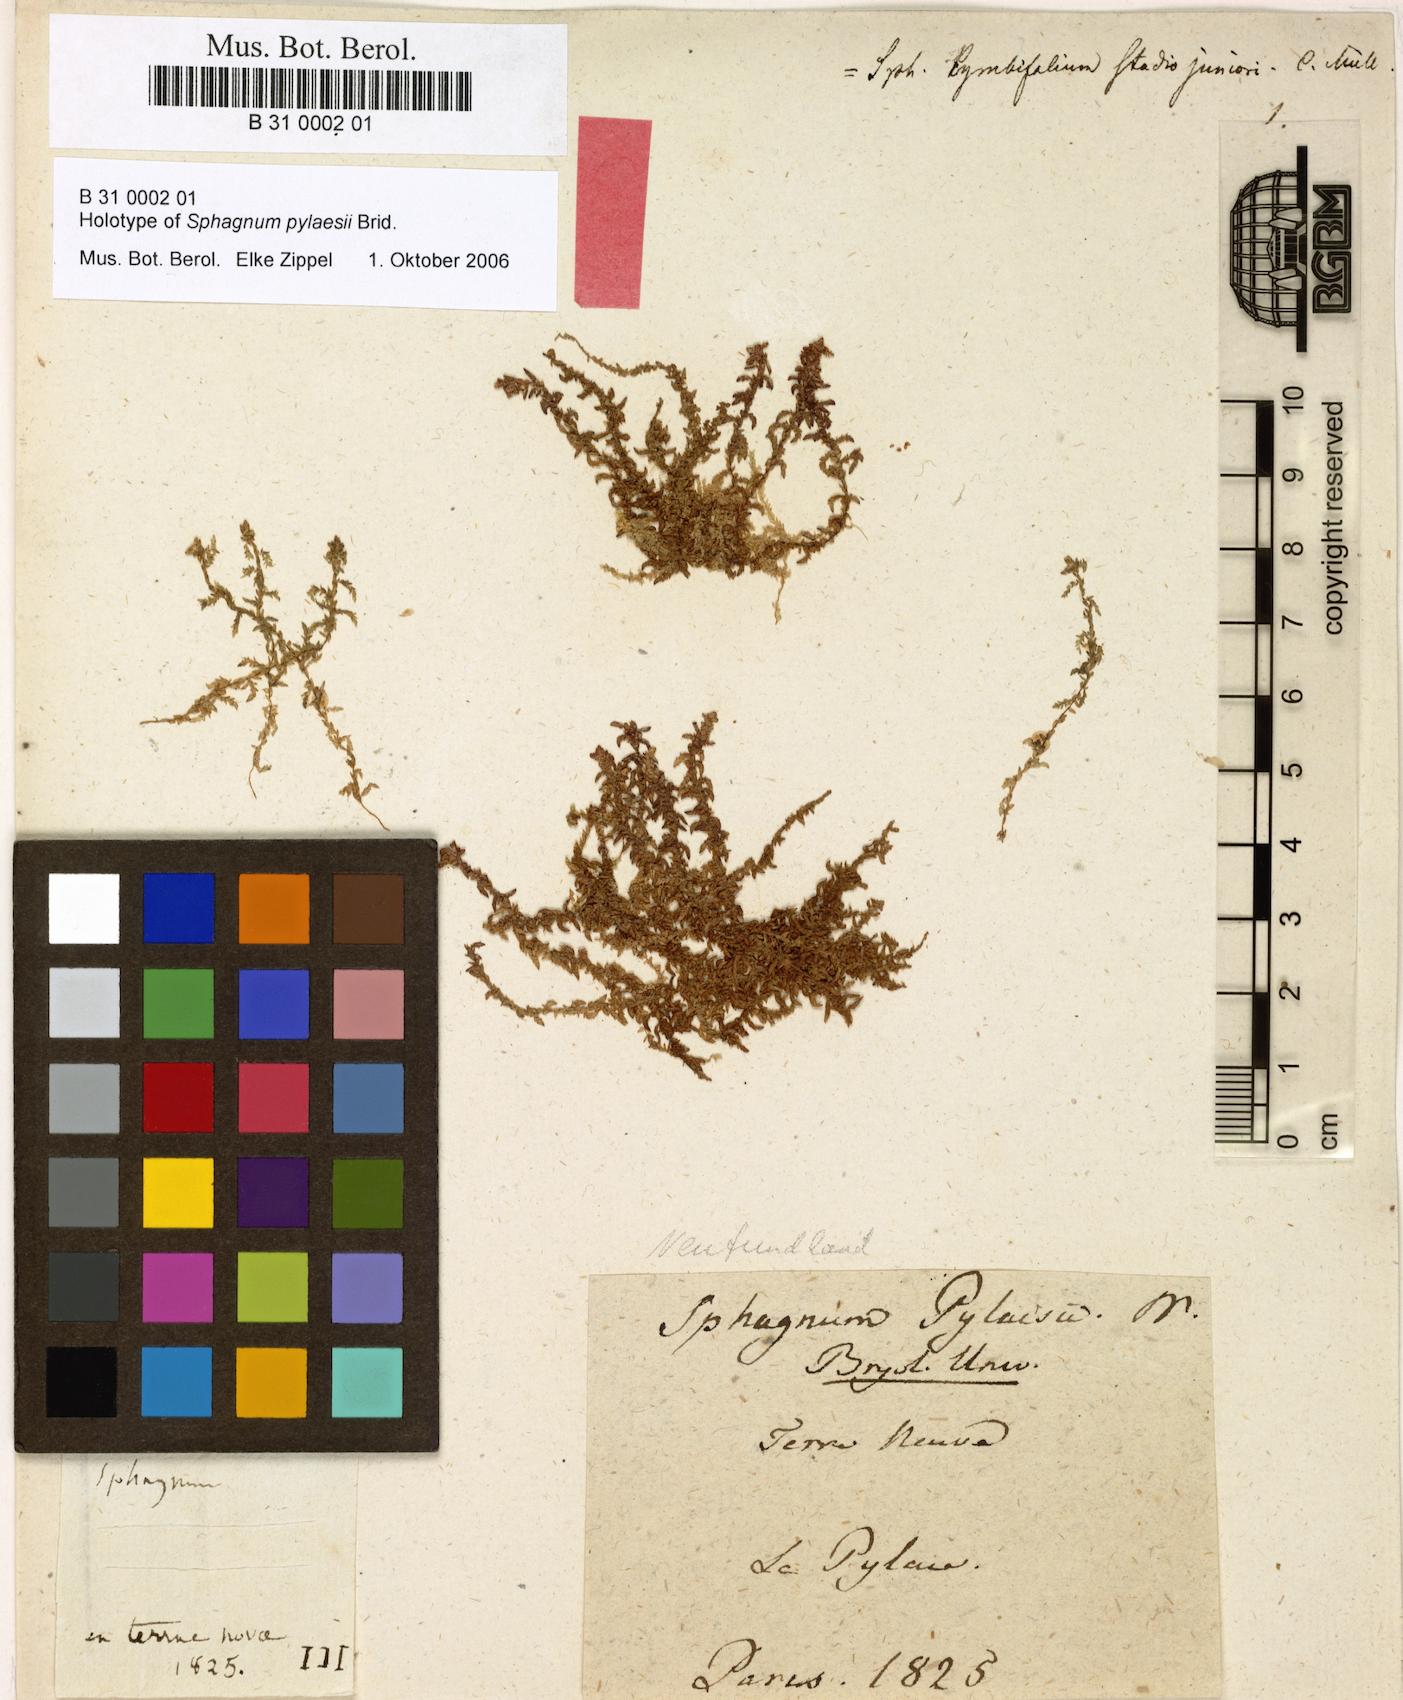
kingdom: Plantae
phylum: Bryophyta
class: Sphagnopsida
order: Sphagnales
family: Sphagnaceae
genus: Sphagnum
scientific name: Sphagnum pylaesii
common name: Pylaie's peat moss
